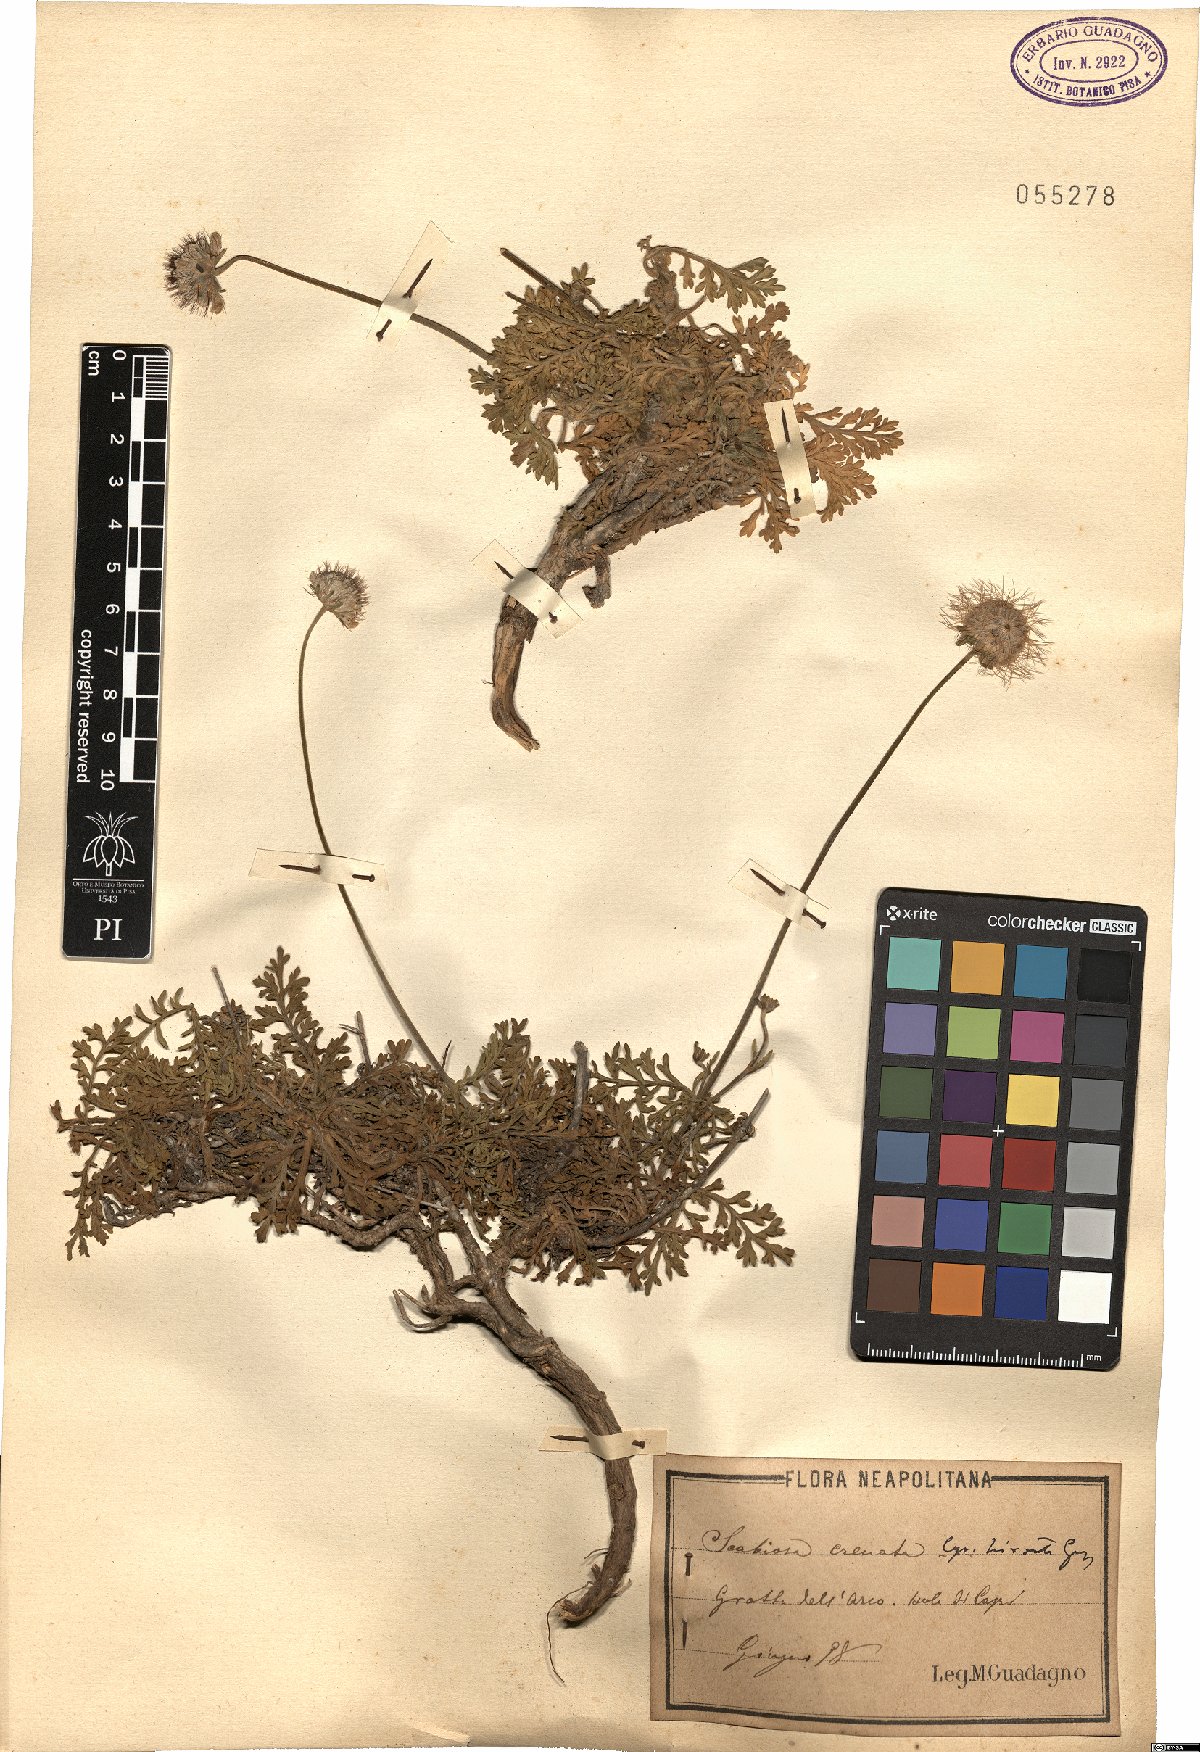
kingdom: Plantae
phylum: Tracheophyta
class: Magnoliopsida
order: Dipsacales
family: Caprifoliaceae
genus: Lomelosia
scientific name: Lomelosia crenata
